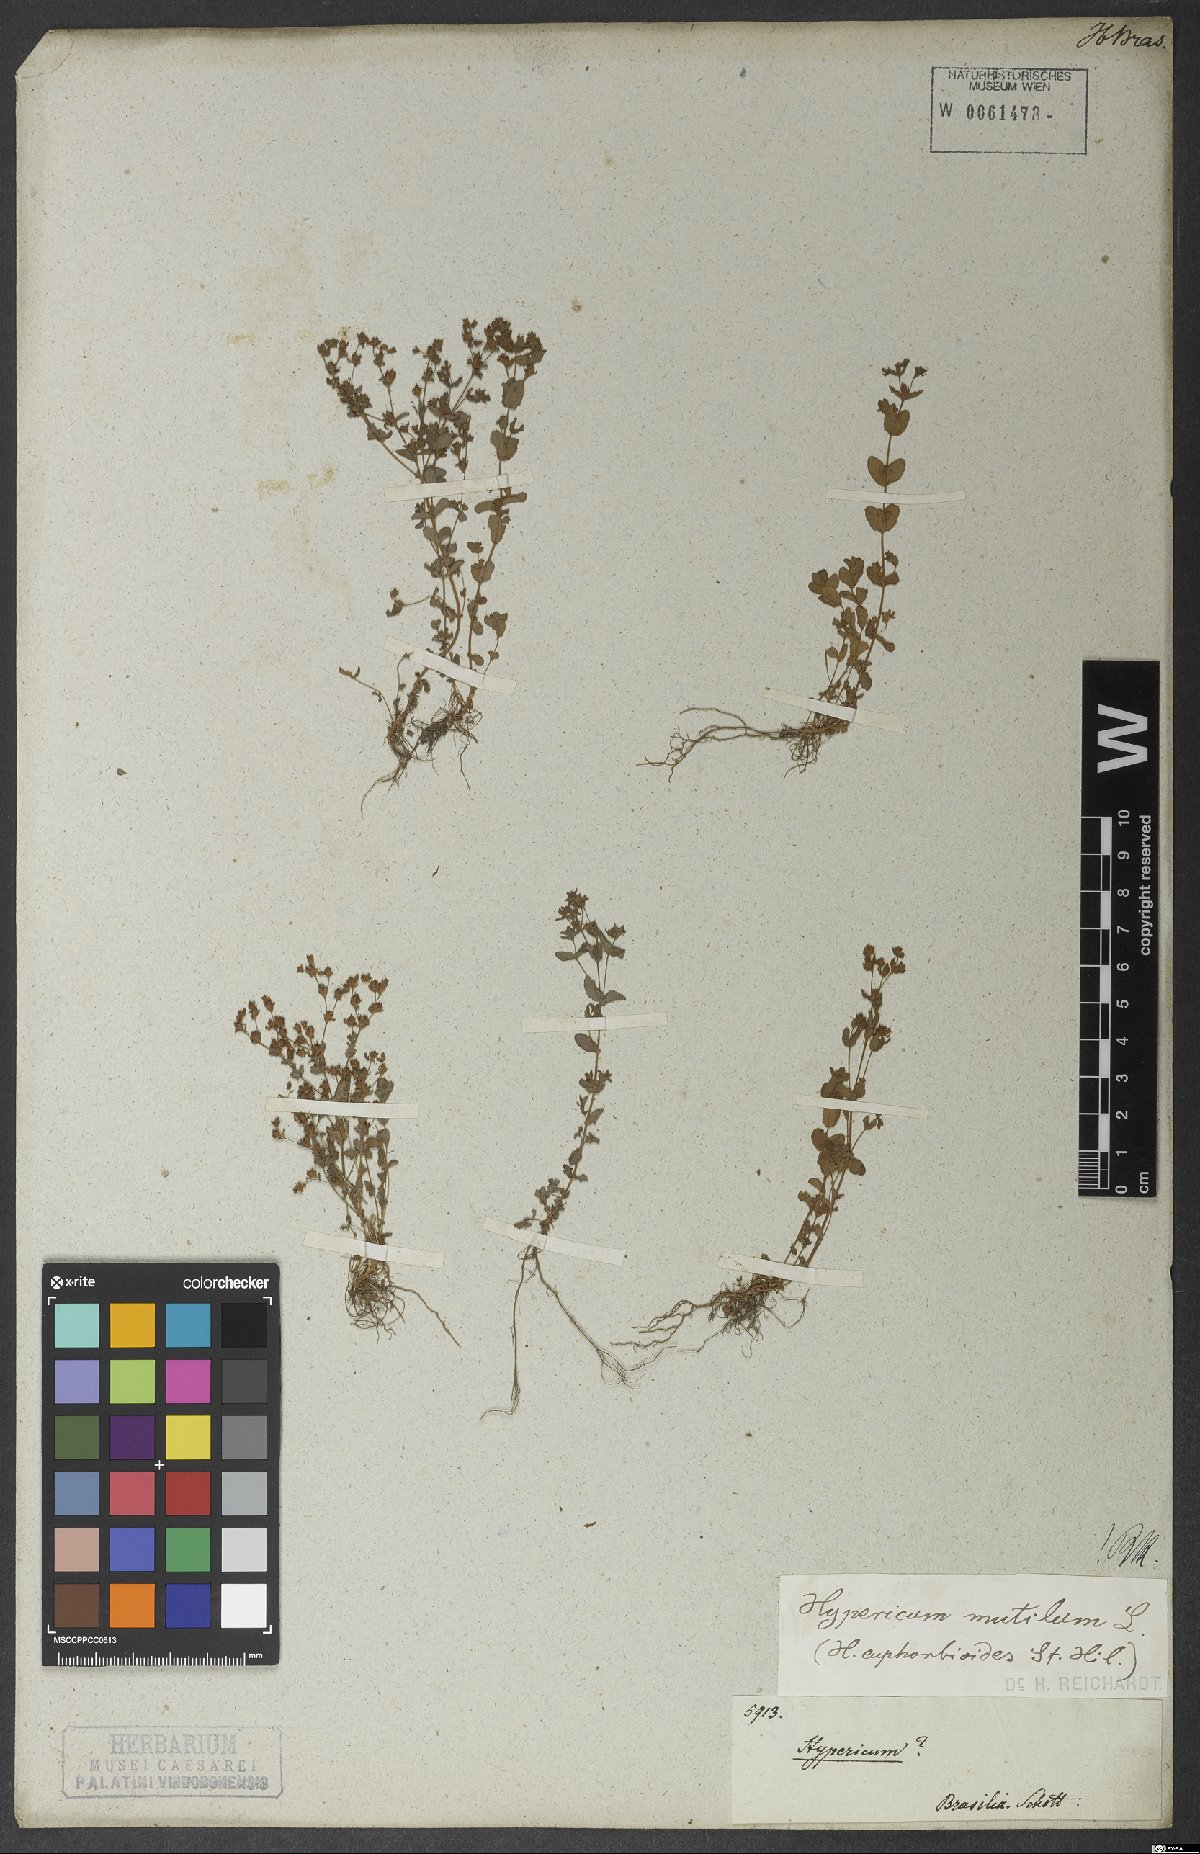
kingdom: Plantae
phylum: Tracheophyta
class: Magnoliopsida
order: Malpighiales
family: Hypericaceae
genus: Hypericum
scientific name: Hypericum mutilum
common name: Dwarf st. john's-wort
